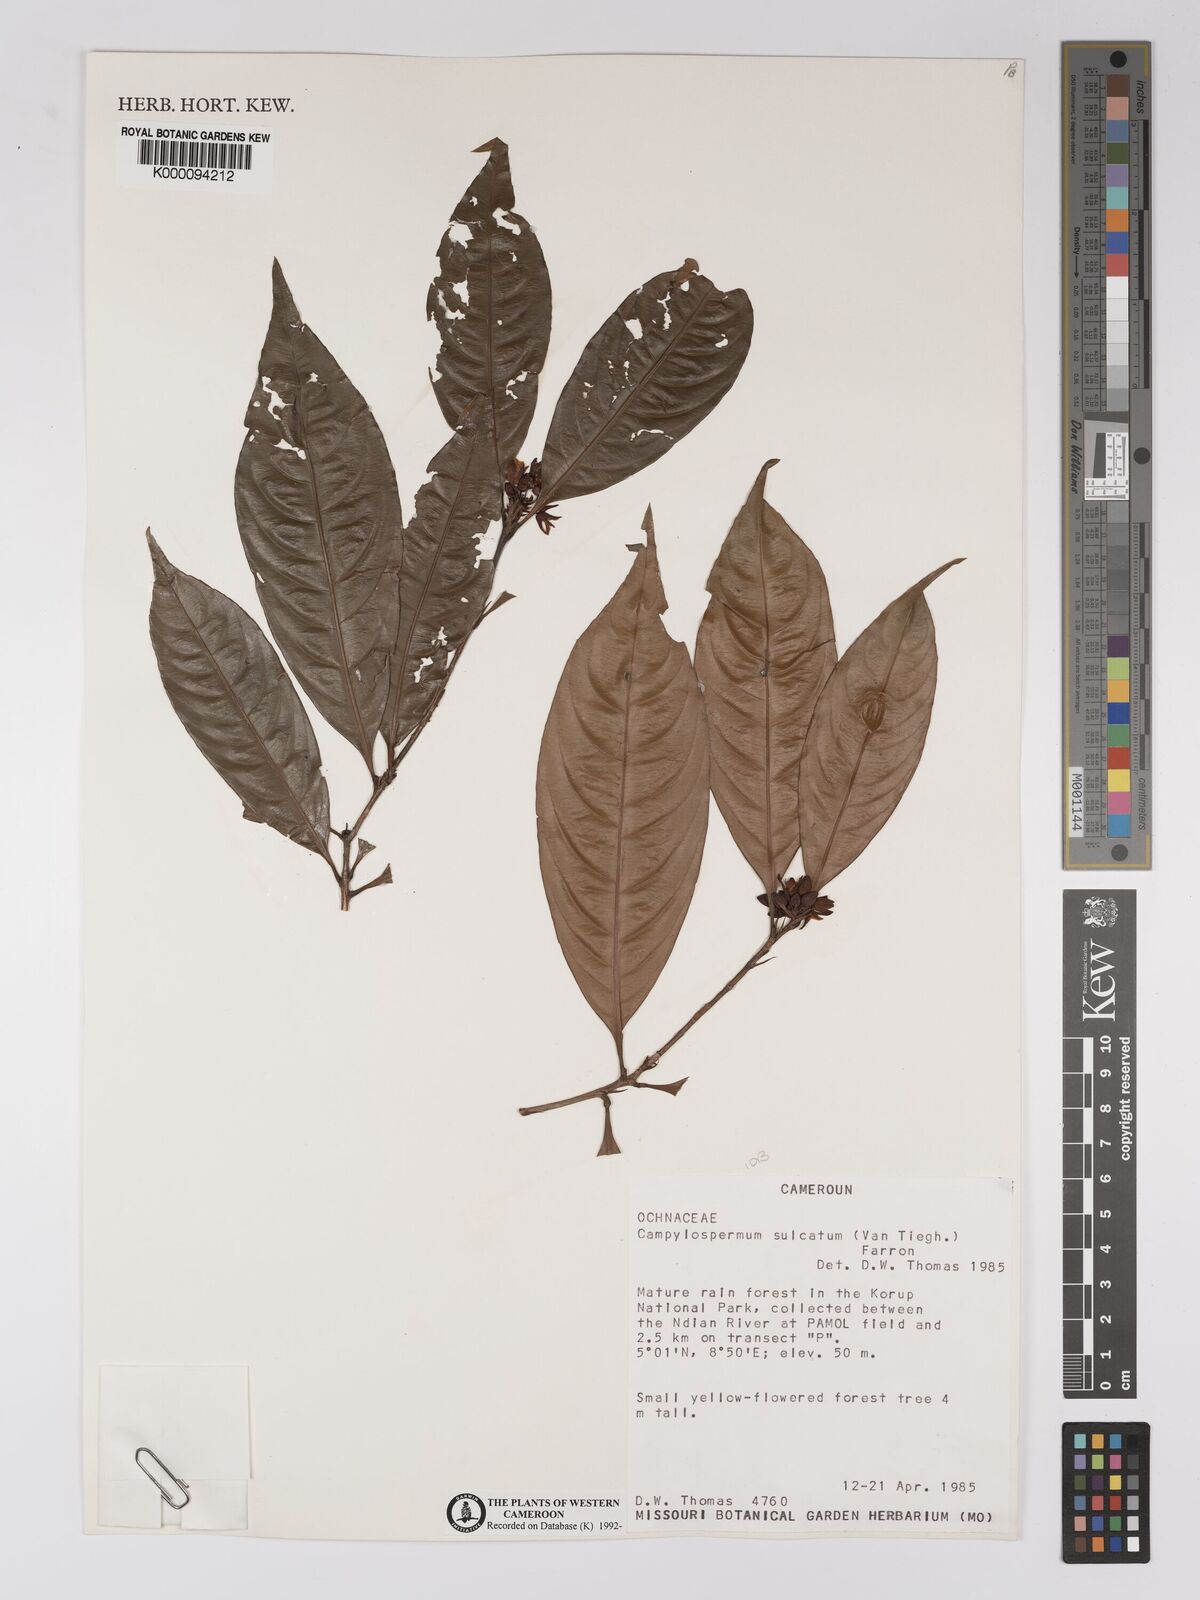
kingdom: Plantae
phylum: Tracheophyta
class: Magnoliopsida
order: Malpighiales
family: Ochnaceae
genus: Campylospermum
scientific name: Campylospermum sulcatum
